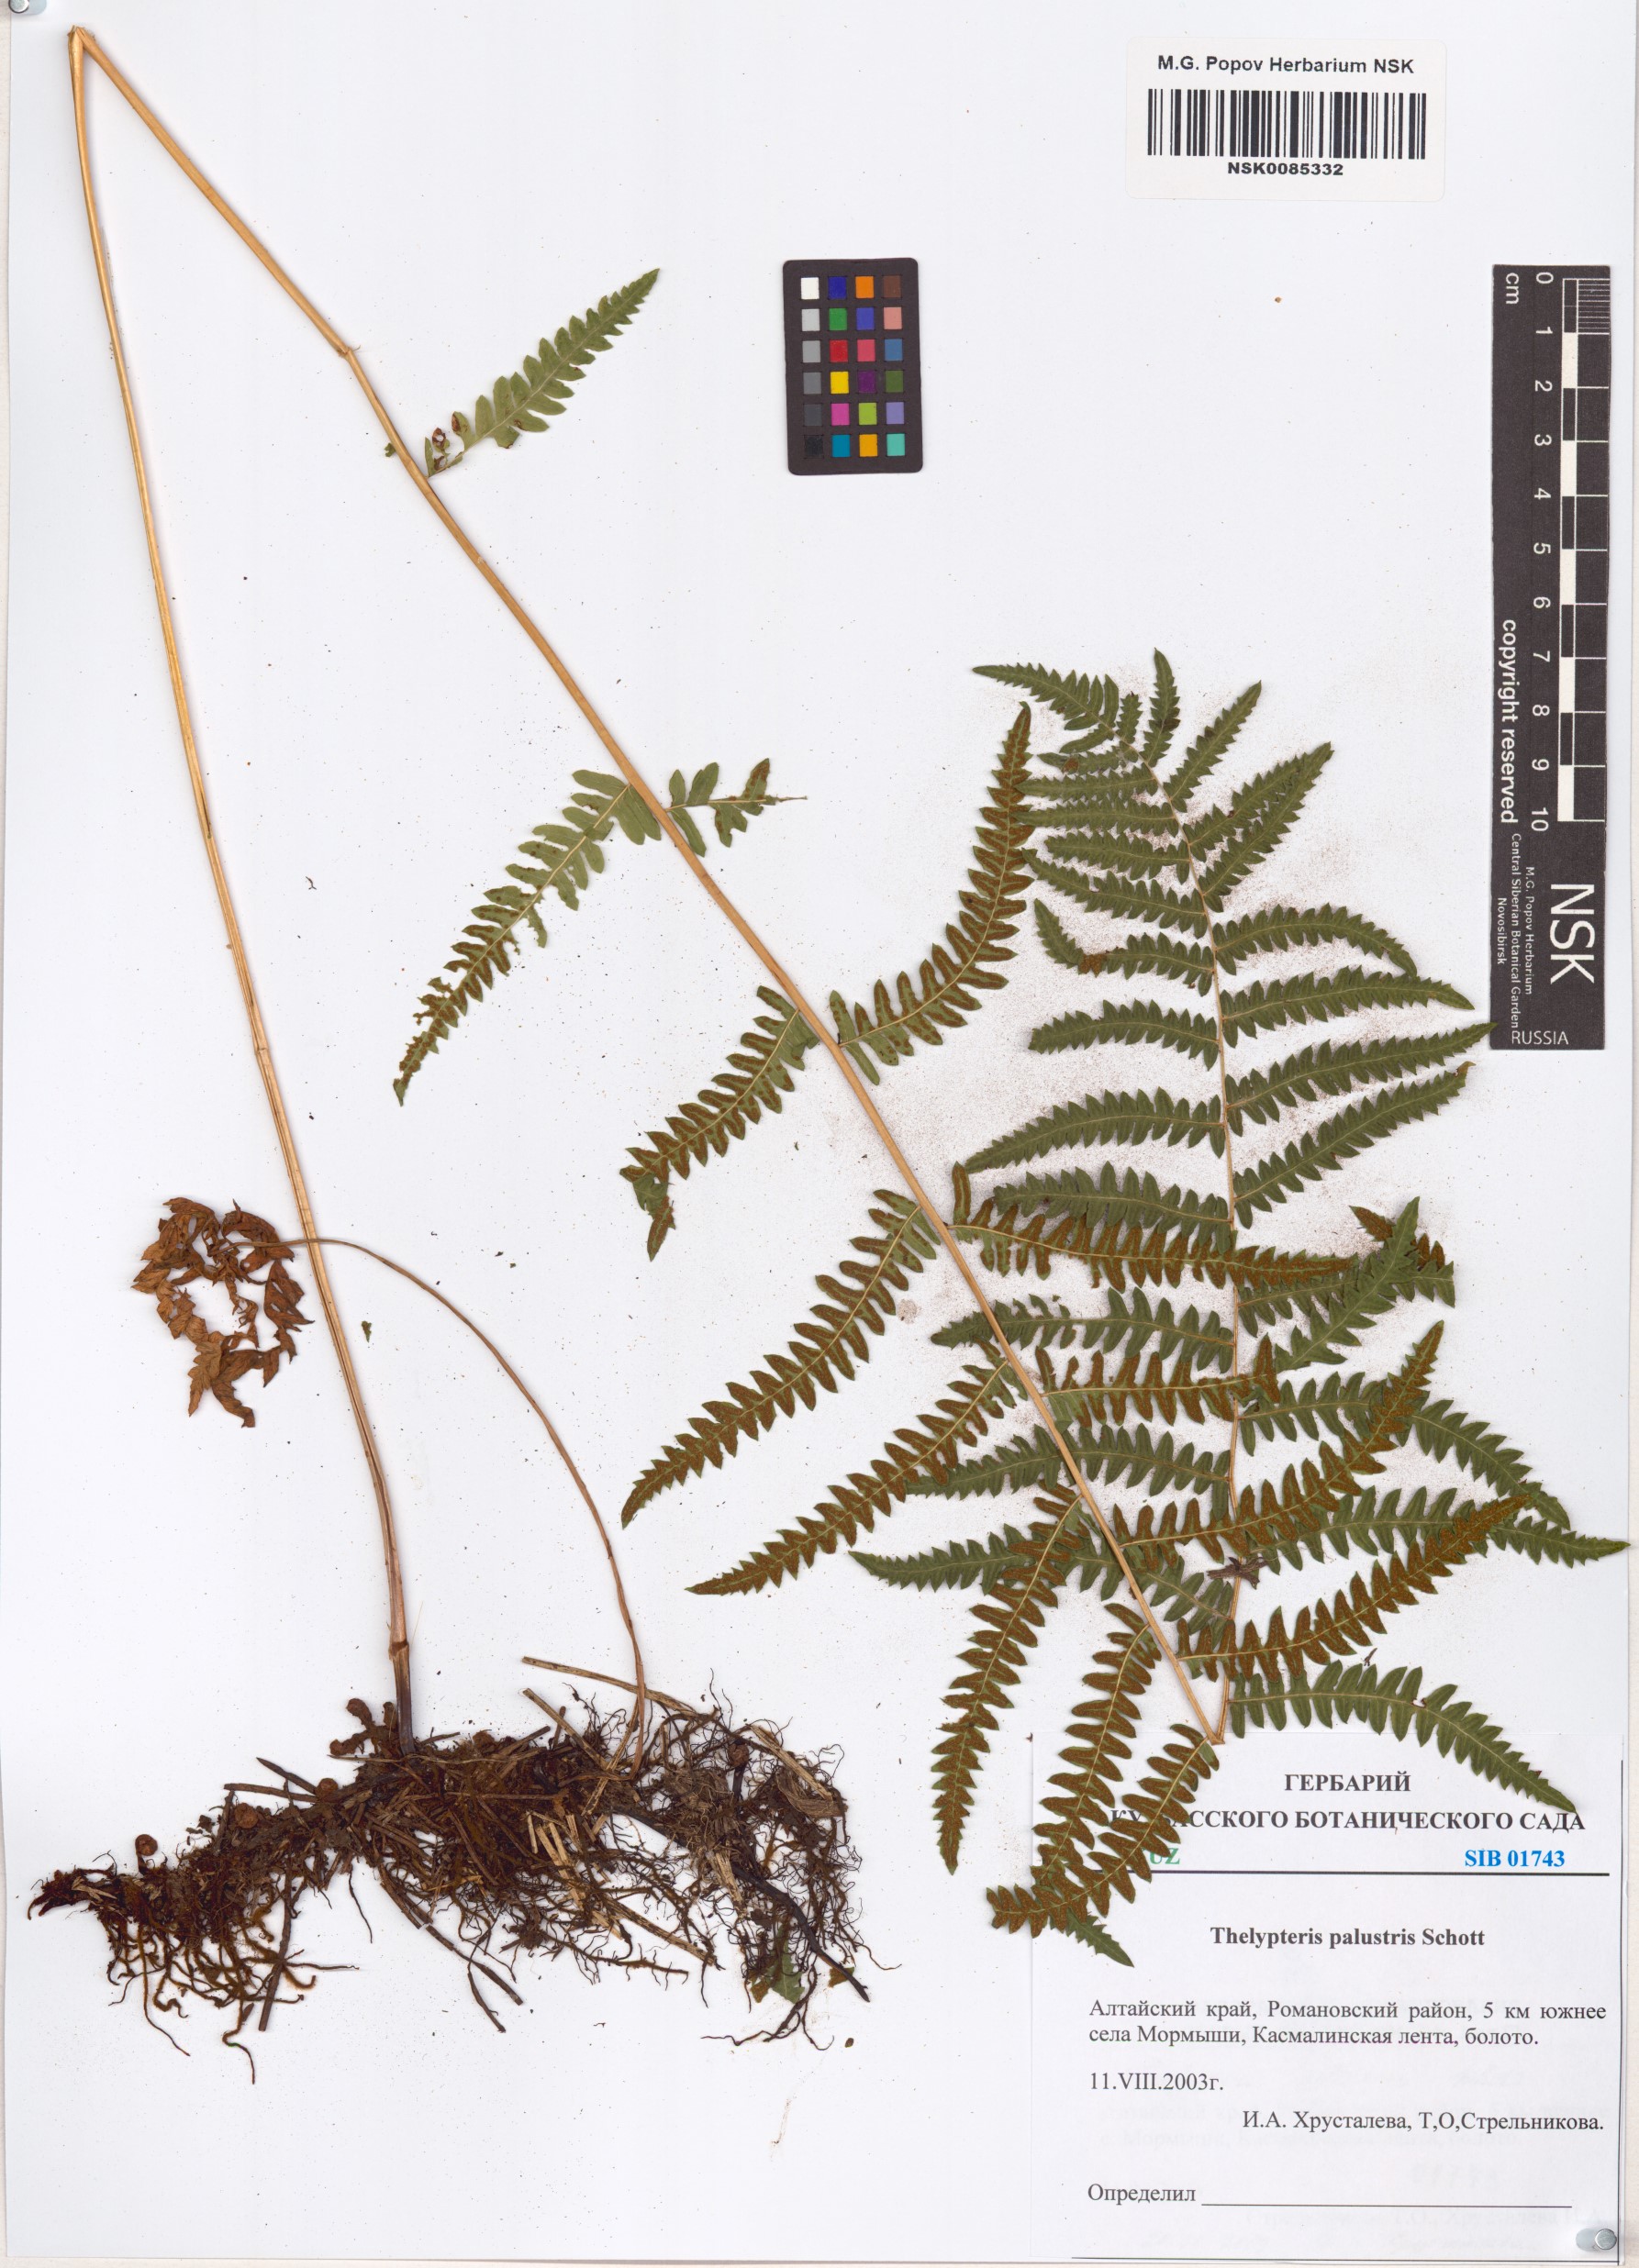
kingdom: Plantae
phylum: Tracheophyta
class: Polypodiopsida
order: Polypodiales
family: Thelypteridaceae
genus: Thelypteris
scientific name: Thelypteris palustris
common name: Marsh fern
